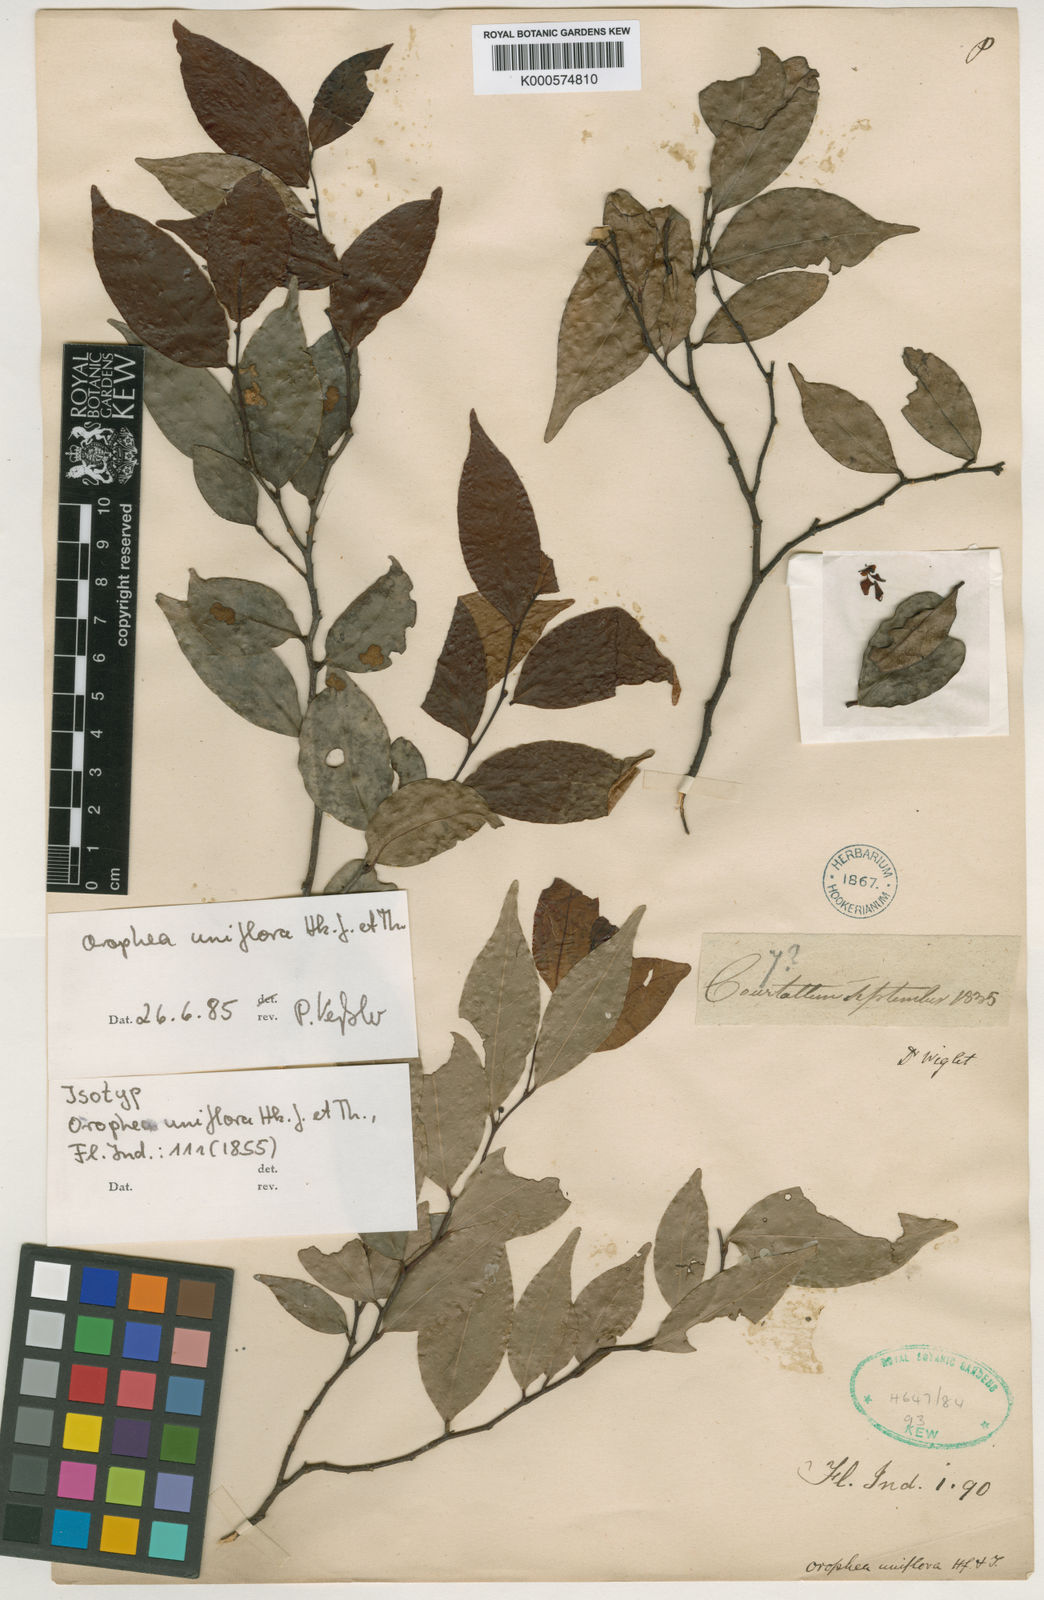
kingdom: Plantae
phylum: Tracheophyta
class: Magnoliopsida
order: Magnoliales
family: Annonaceae
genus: Orophea
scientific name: Orophea uniflora
